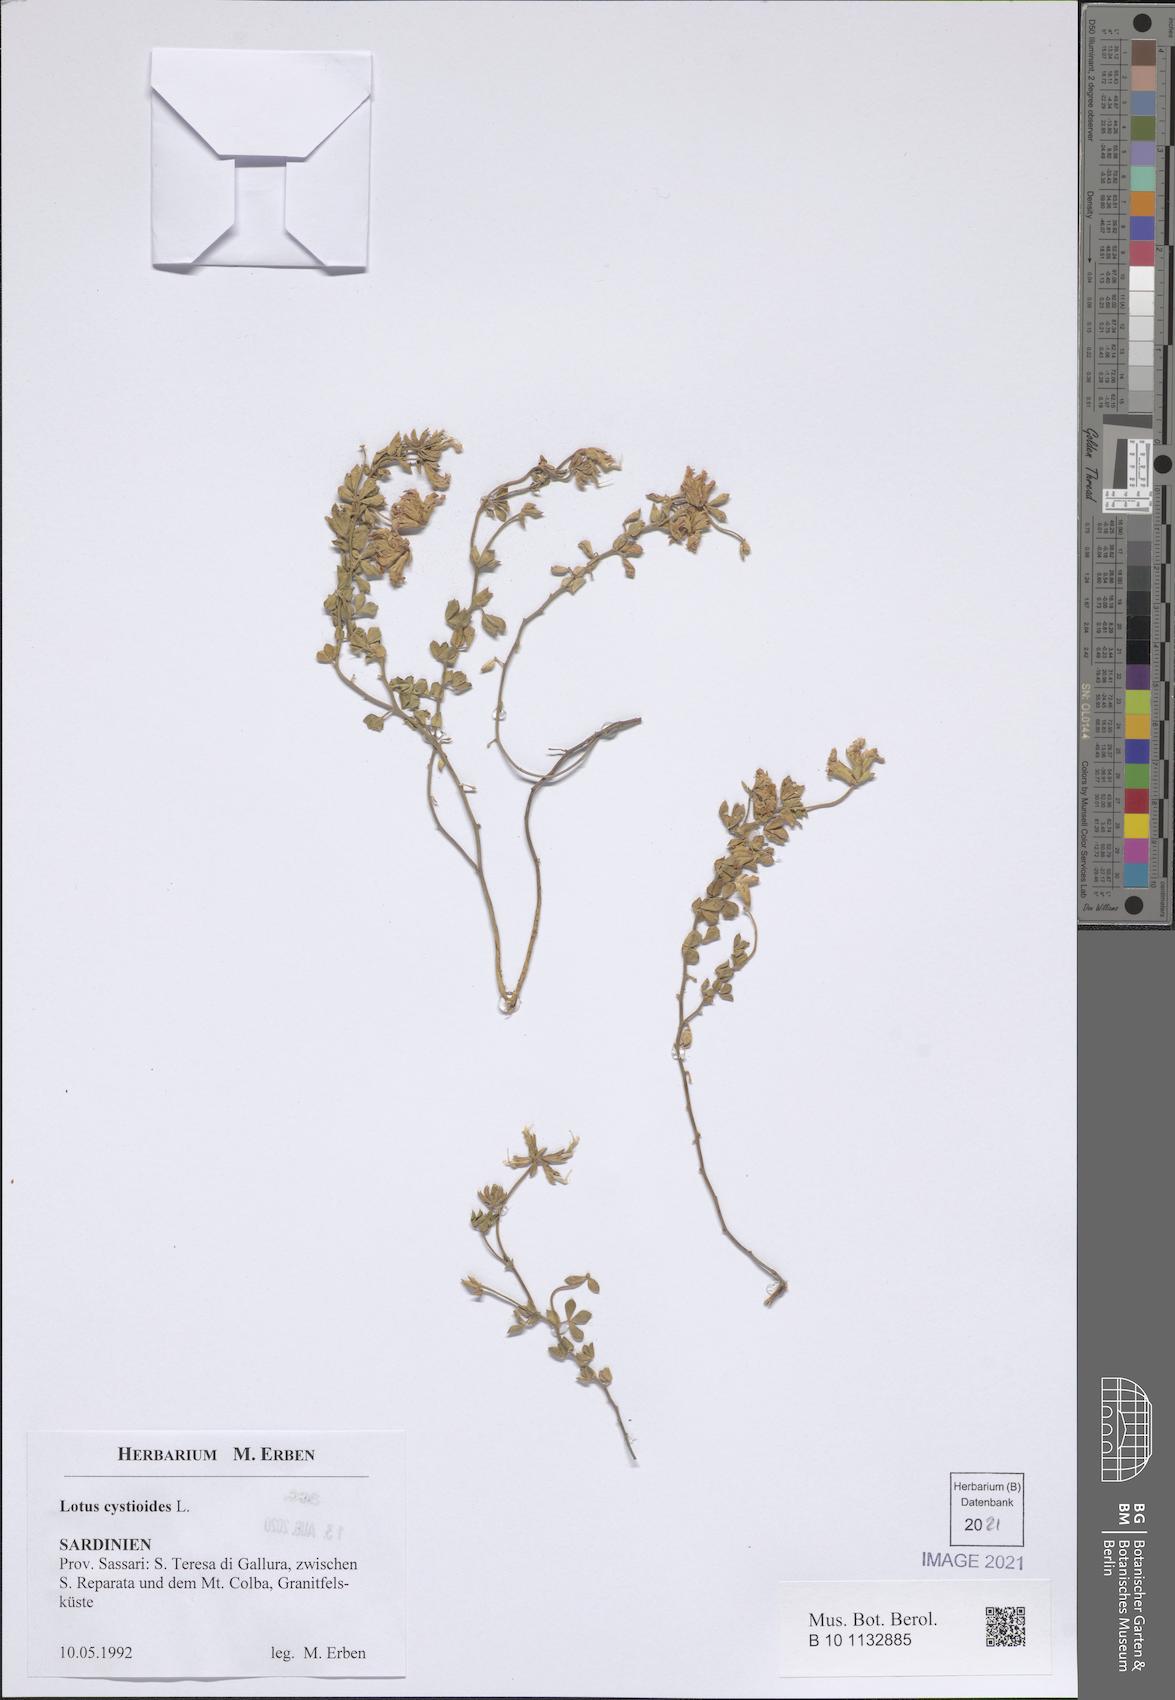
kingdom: Plantae
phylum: Tracheophyta
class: Magnoliopsida
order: Fabales
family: Fabaceae
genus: Lotus
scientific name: Lotus cytisoides
